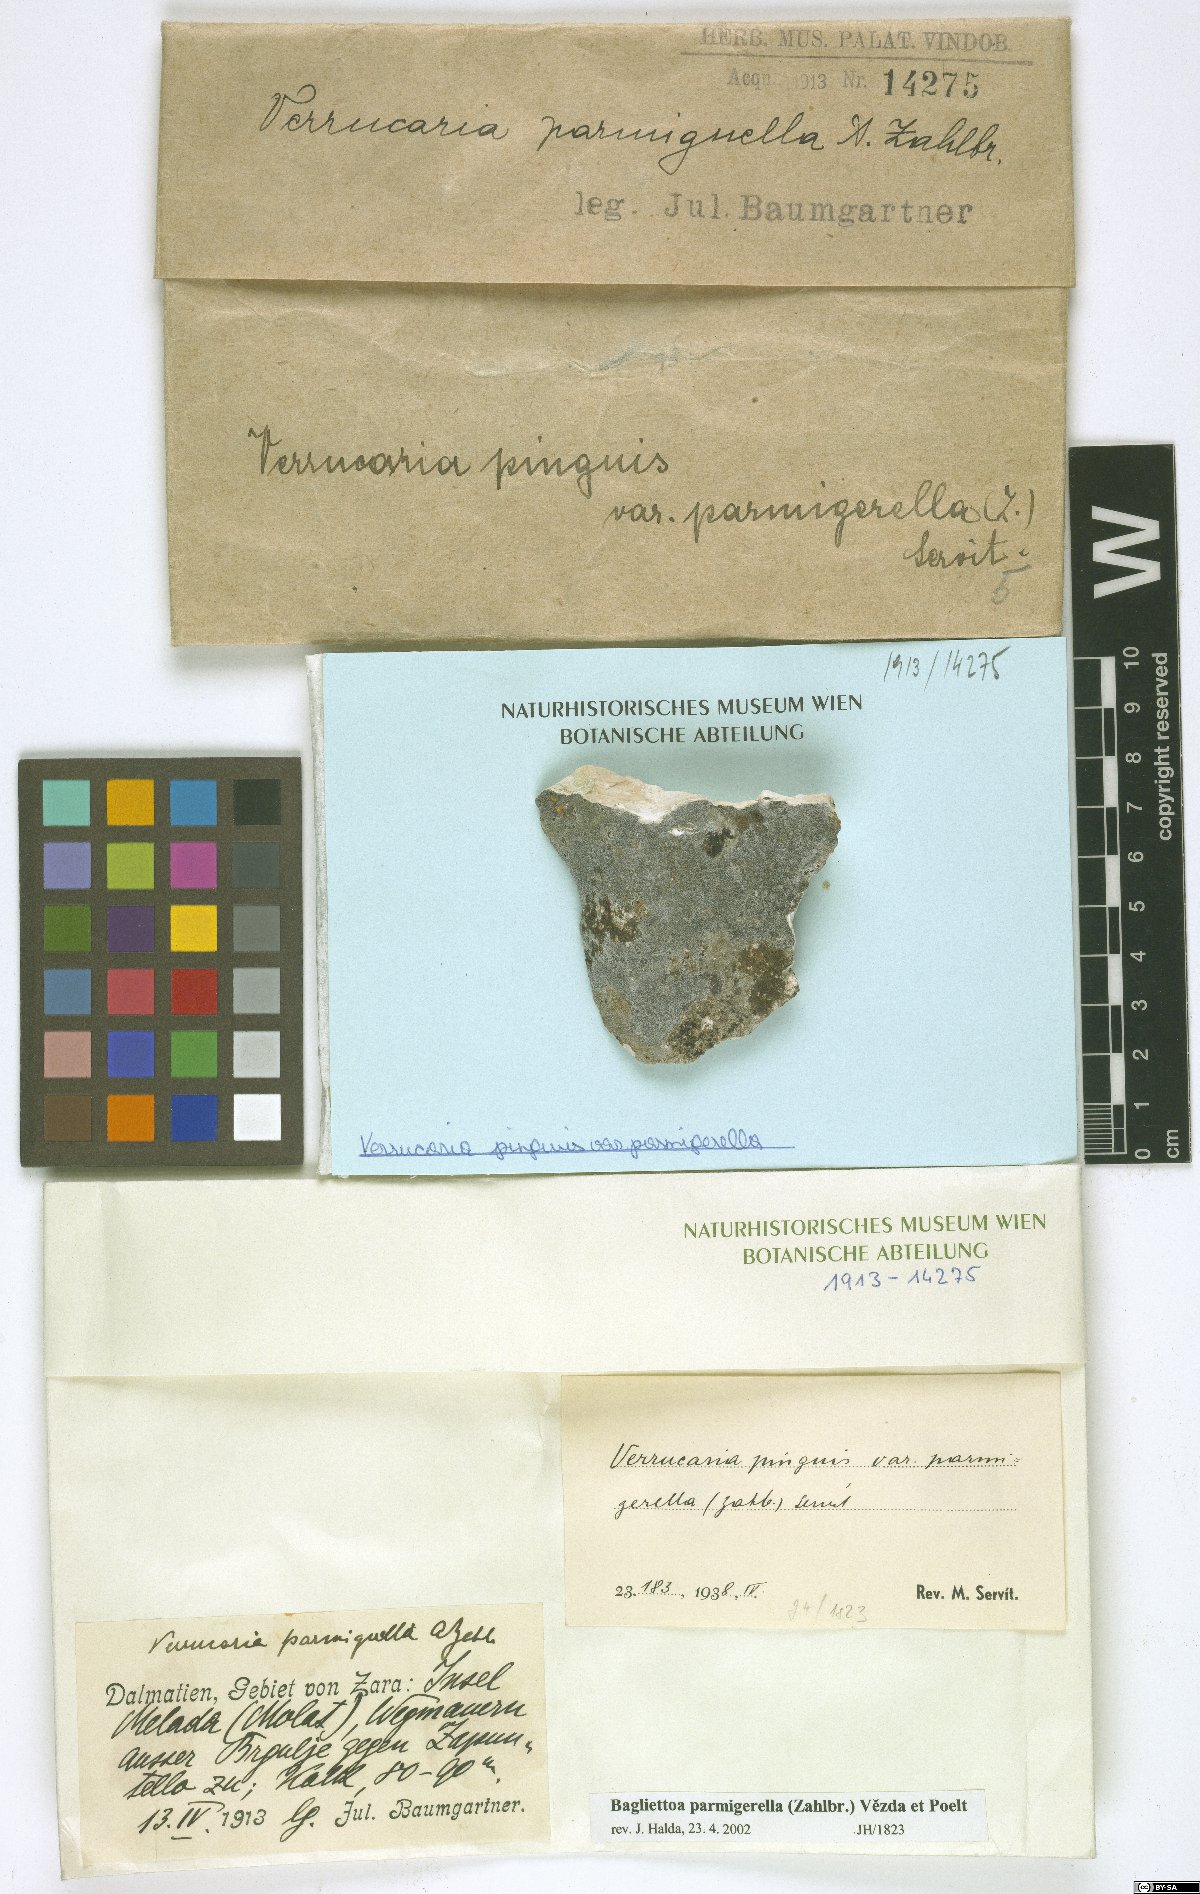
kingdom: Fungi
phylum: Ascomycota
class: Eurotiomycetes
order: Verrucariales
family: Verrucariaceae
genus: Verrucaria
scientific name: Verrucaria
